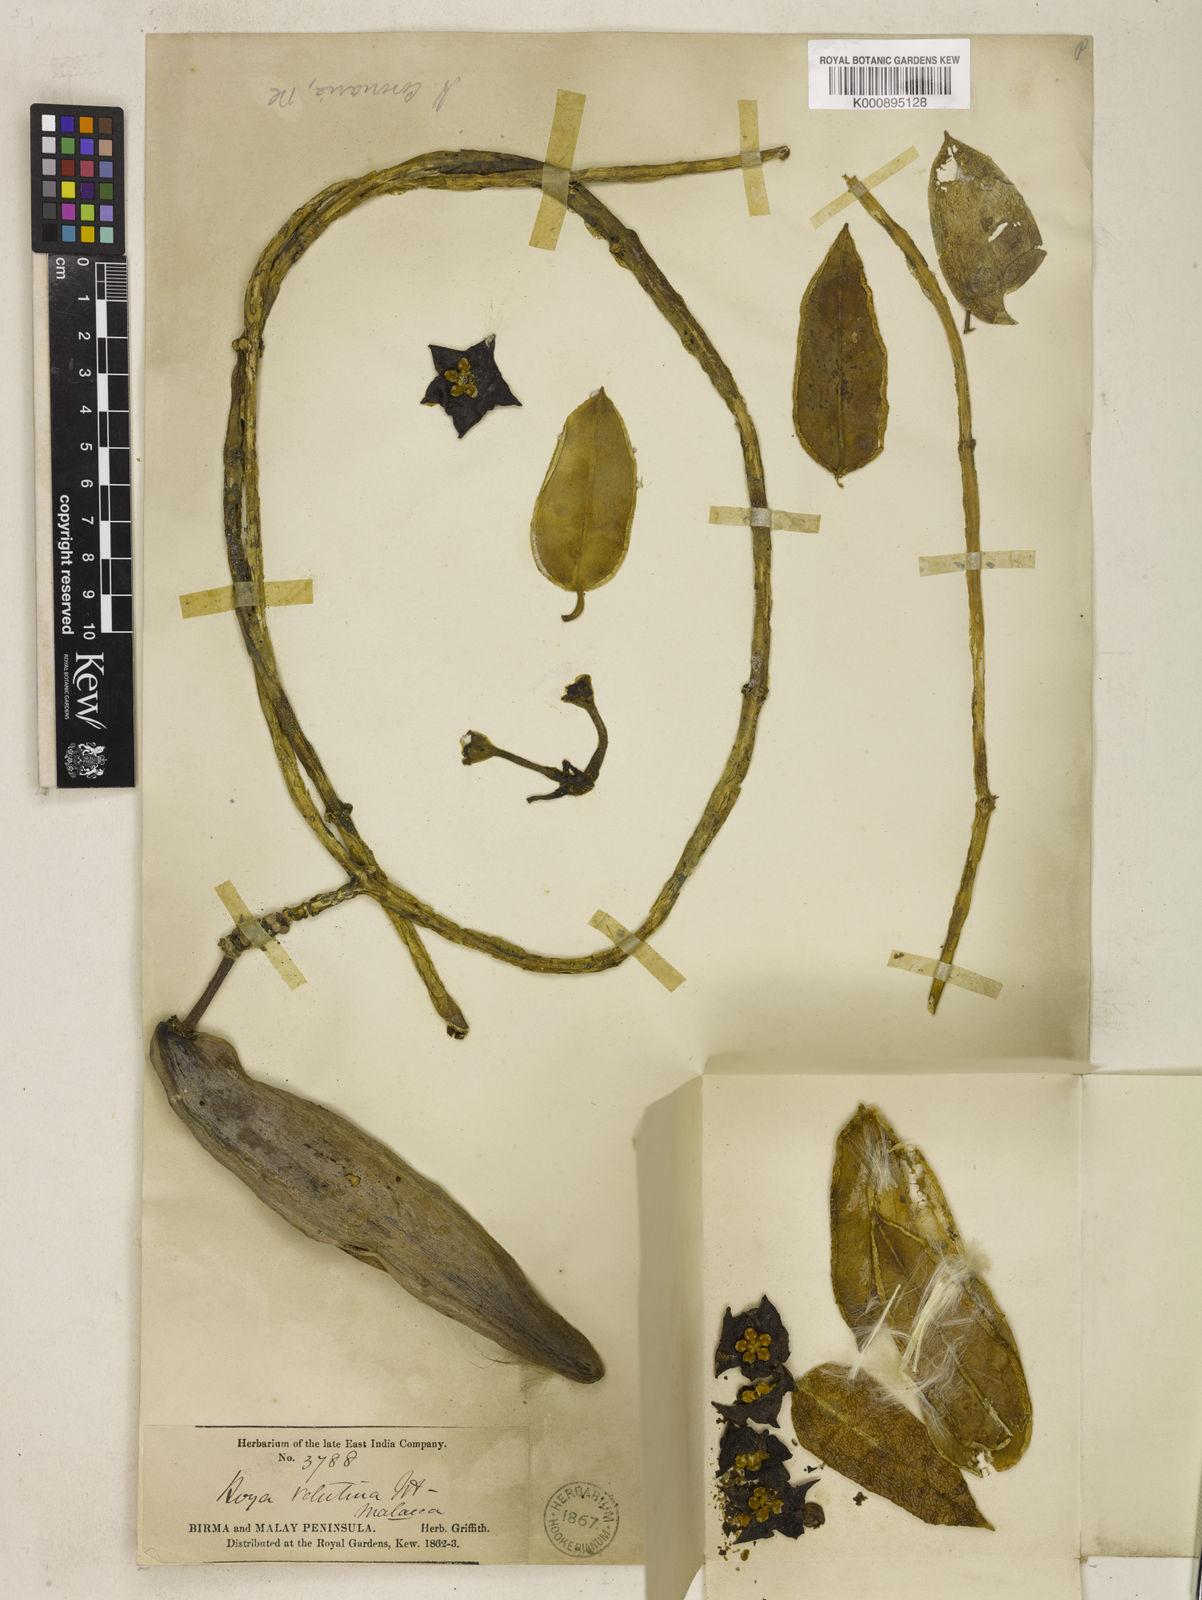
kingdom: Plantae
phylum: Tracheophyta
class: Magnoliopsida
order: Gentianales
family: Apocynaceae
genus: Eriostemma
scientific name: Eriostemma coronaria
